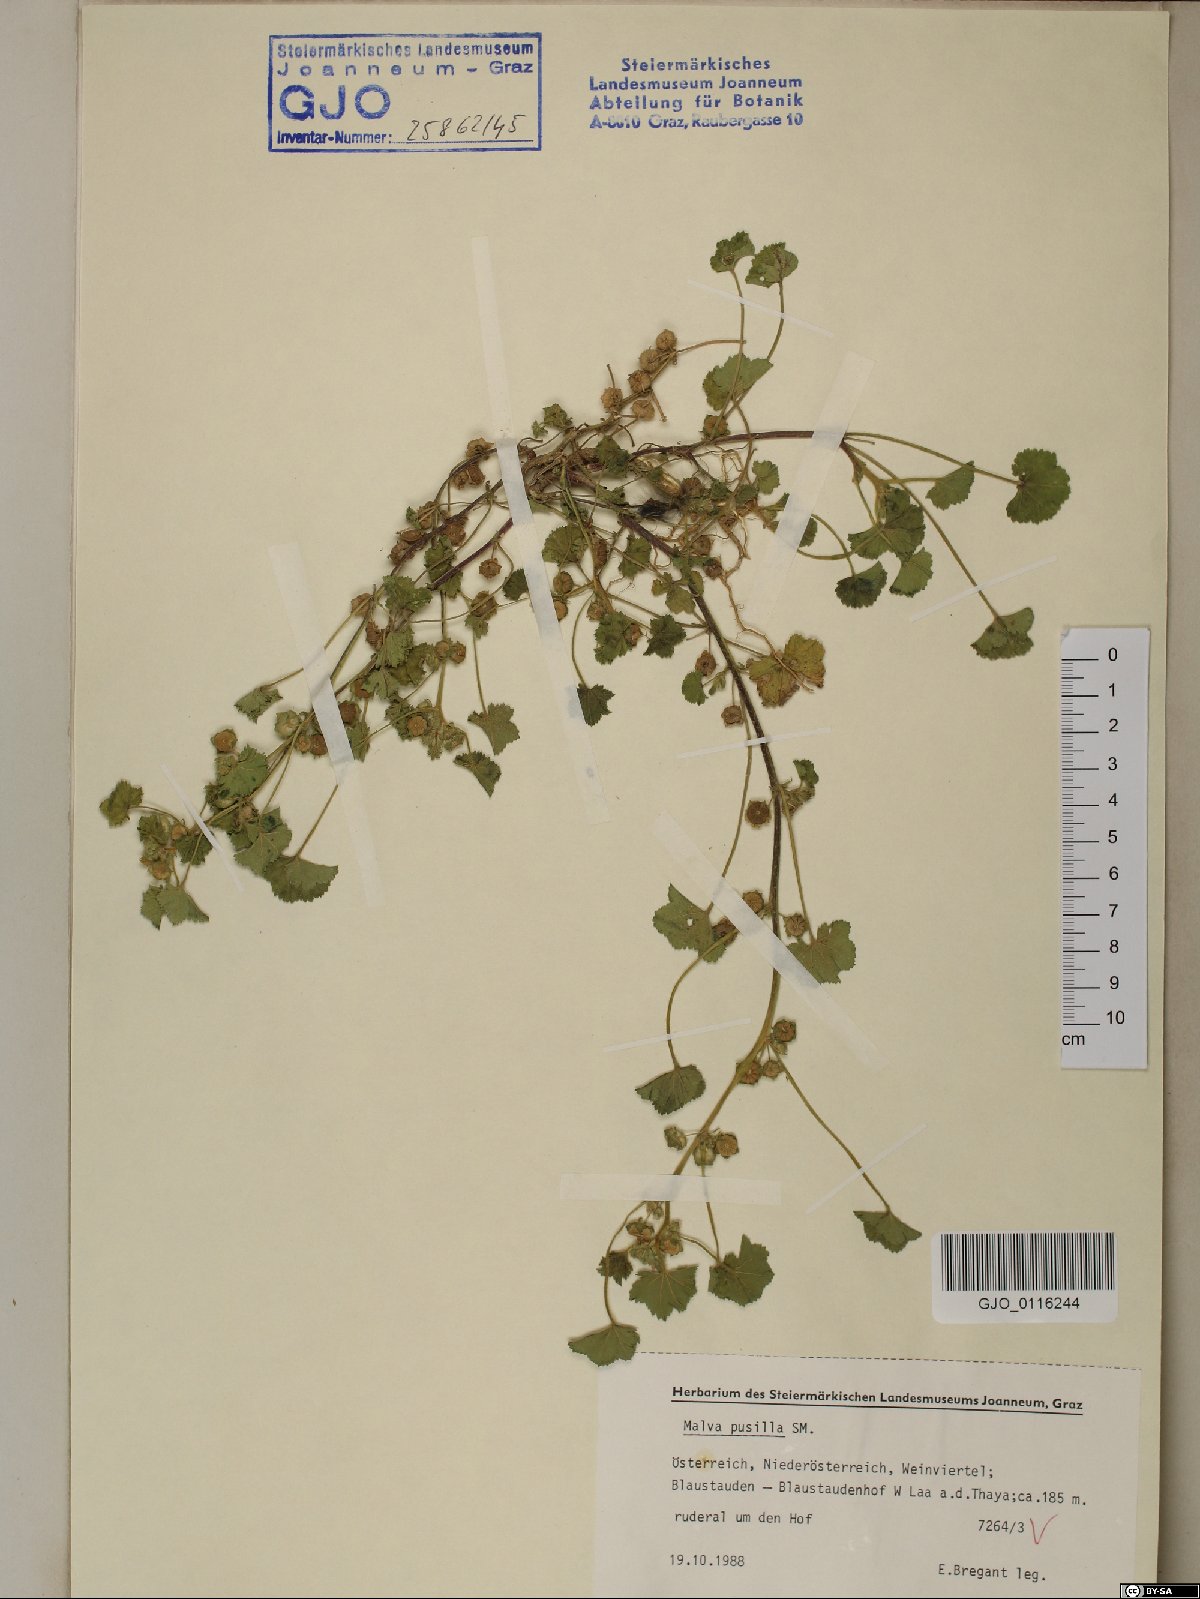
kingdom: Plantae
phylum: Tracheophyta
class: Magnoliopsida
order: Malvales
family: Malvaceae
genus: Malva
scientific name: Malva pusilla
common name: Small mallow
